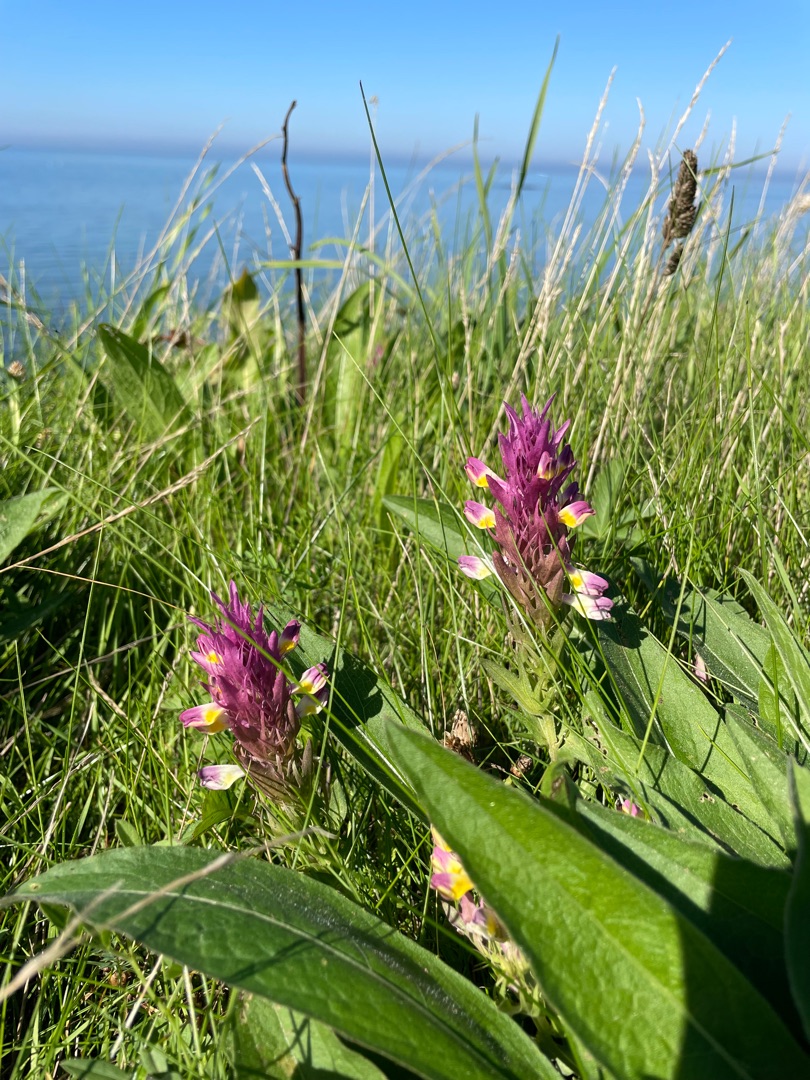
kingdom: Plantae
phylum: Tracheophyta
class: Magnoliopsida
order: Lamiales
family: Orobanchaceae
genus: Melampyrum
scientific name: Melampyrum arvense
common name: Ager-kohvede
